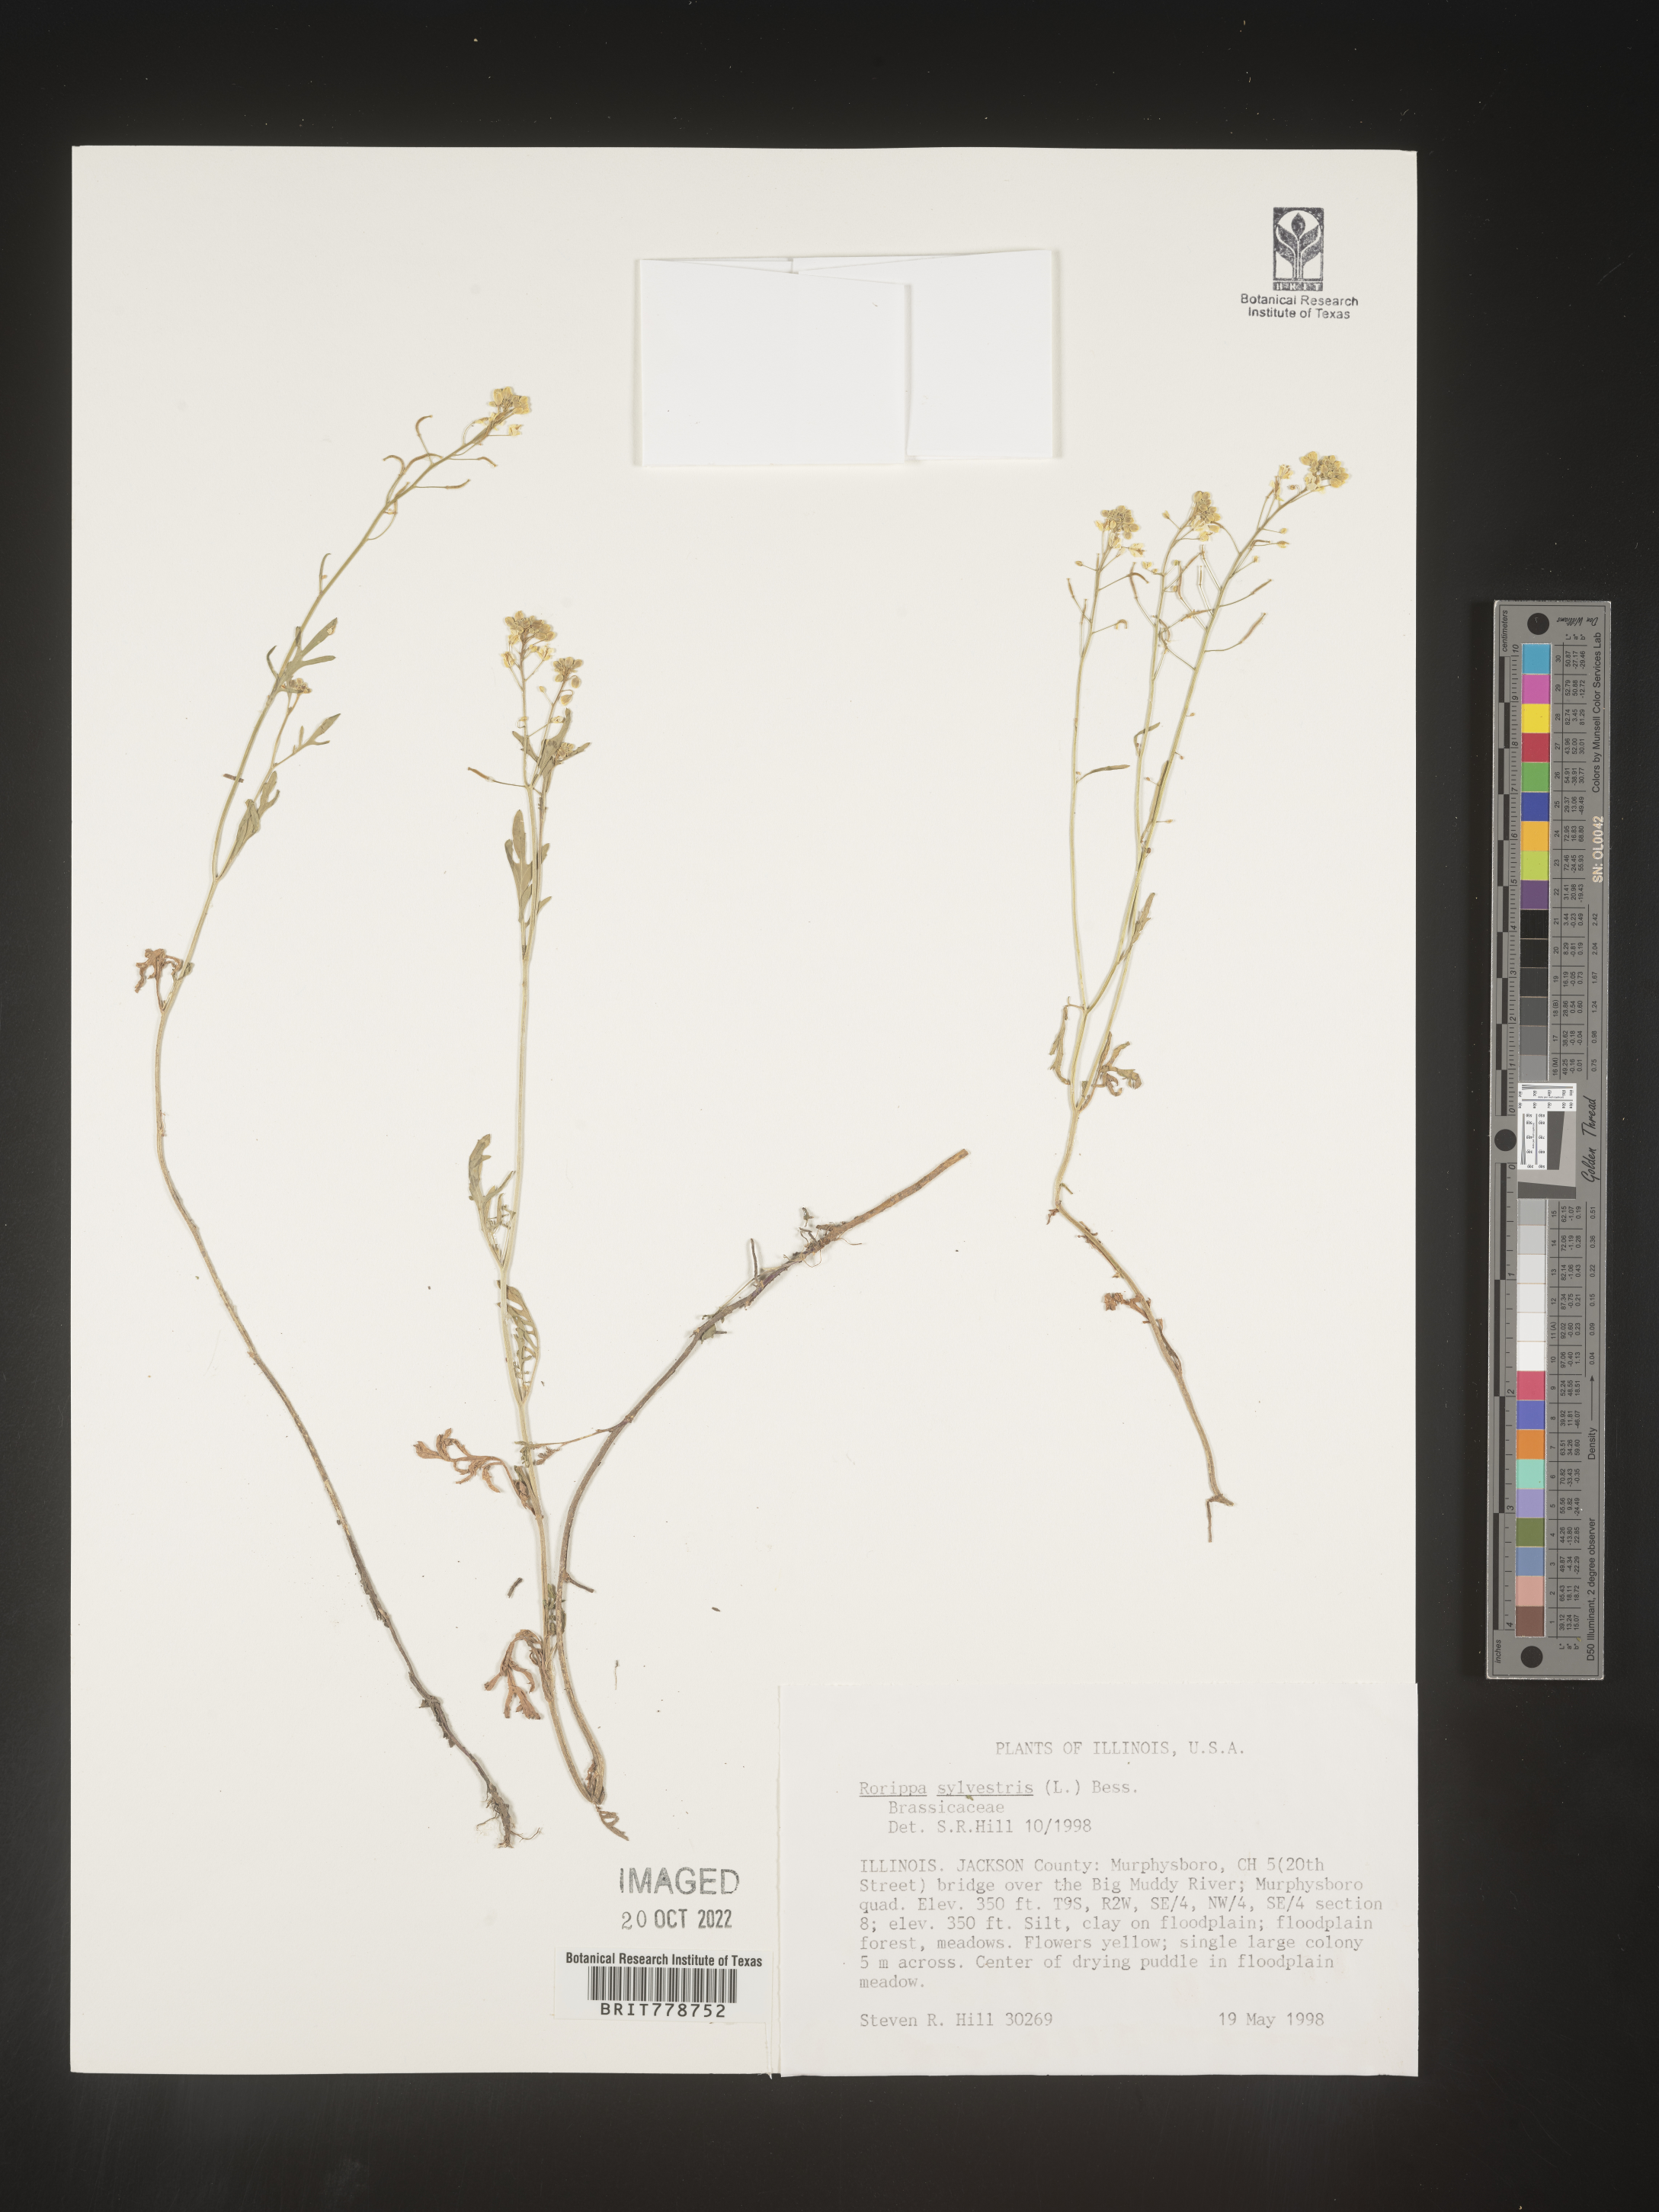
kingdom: Plantae
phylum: Tracheophyta
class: Magnoliopsida
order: Brassicales
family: Brassicaceae
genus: Rorippa
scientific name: Rorippa sylvestris
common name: Creeping yellowcress
